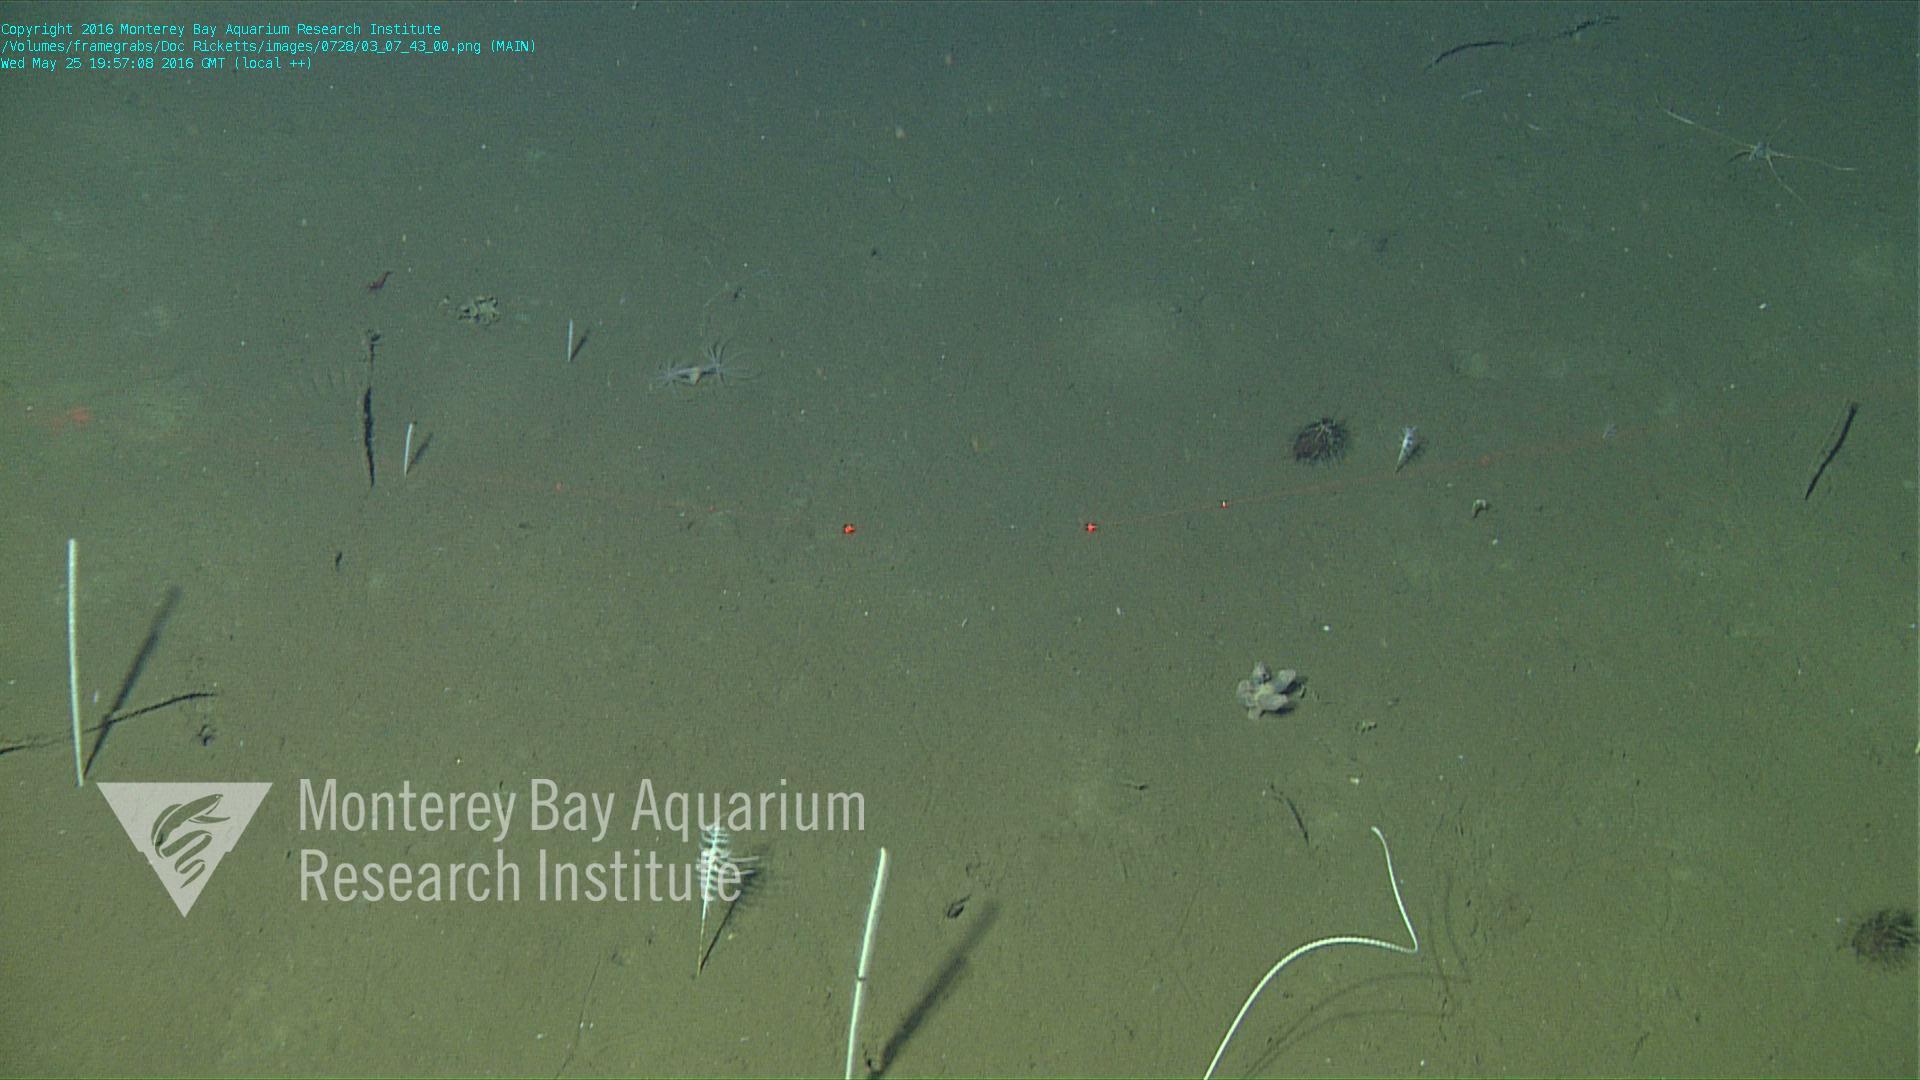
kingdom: Animalia
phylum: Cnidaria
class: Anthozoa
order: Scleralcyonacea
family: Coralliidae
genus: Bathyalcyon
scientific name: Bathyalcyon robustum
